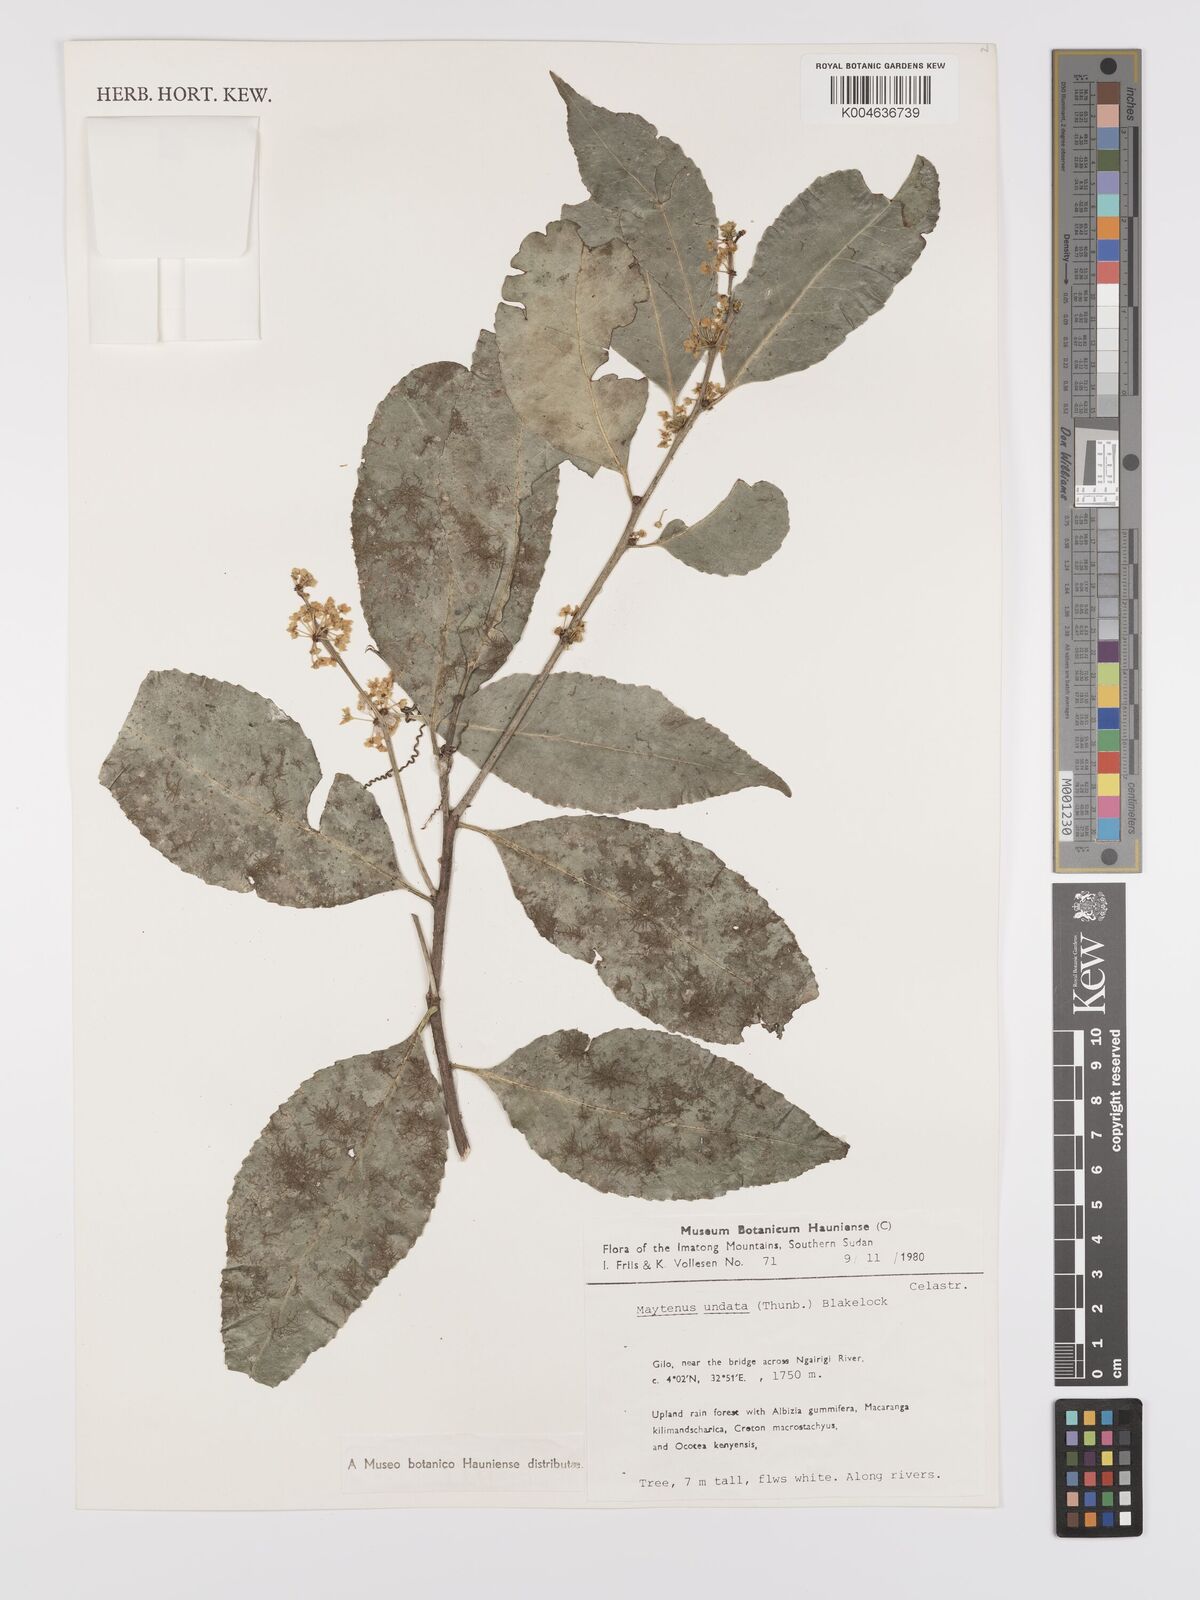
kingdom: Plantae
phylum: Tracheophyta
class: Magnoliopsida
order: Celastrales
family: Celastraceae
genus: Gymnosporia
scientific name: Gymnosporia undata
